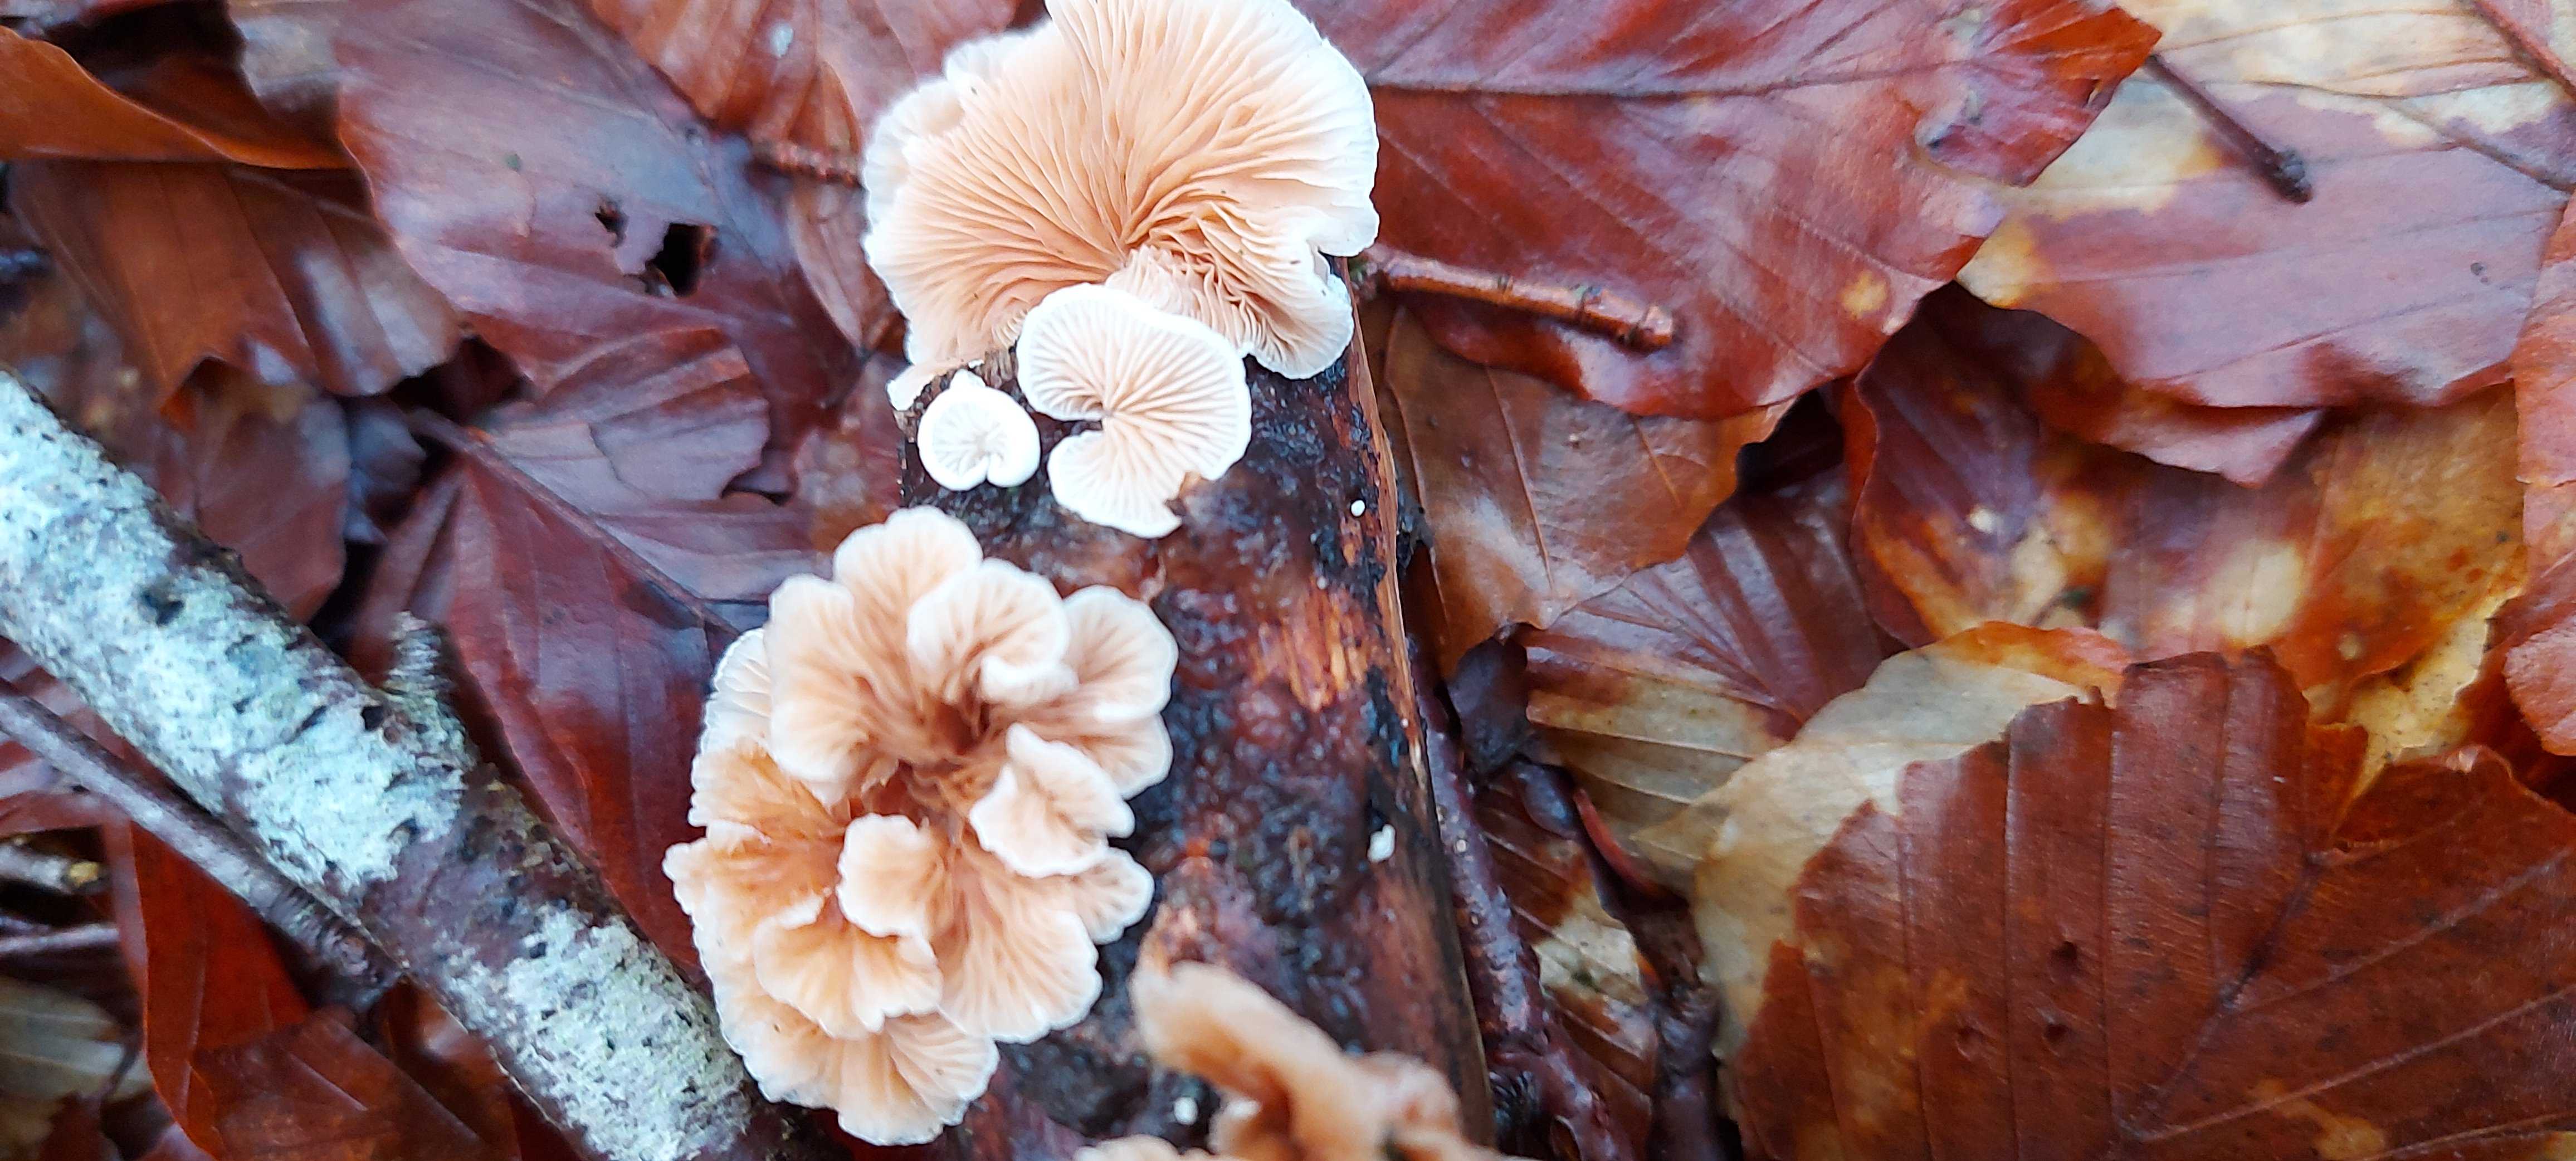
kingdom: Fungi
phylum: Basidiomycota
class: Agaricomycetes
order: Agaricales
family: Crepidotaceae
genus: Crepidotus
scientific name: Crepidotus
